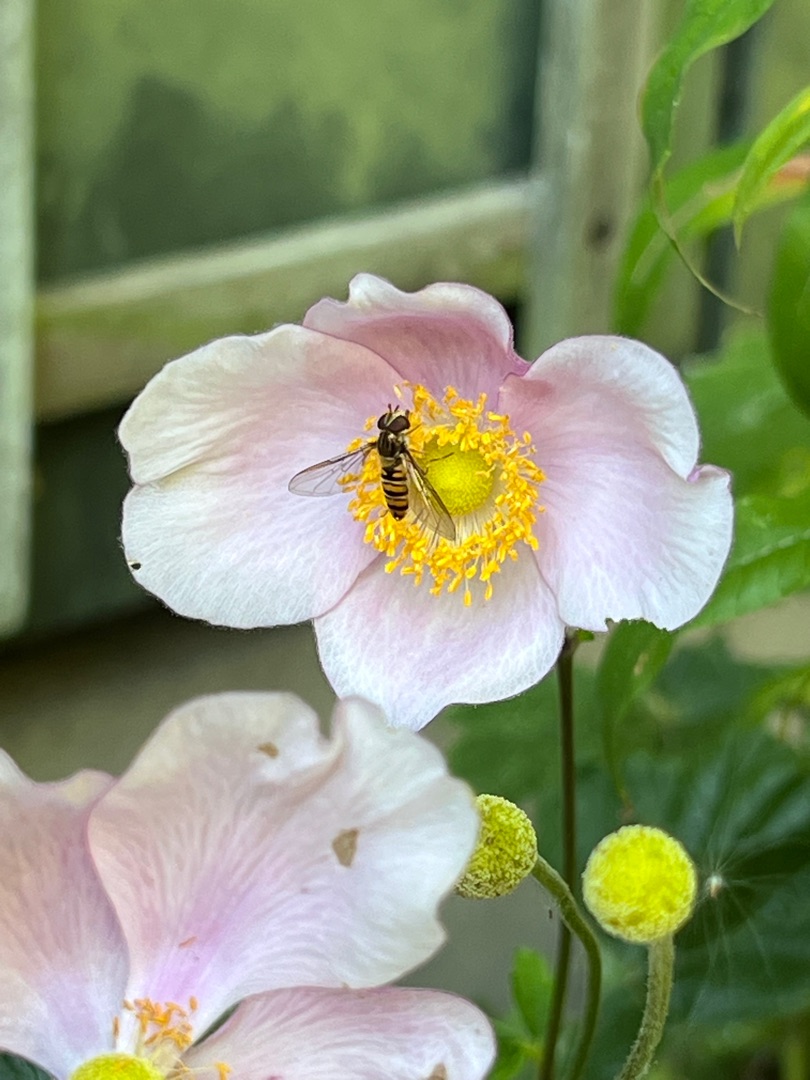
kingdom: Animalia
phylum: Arthropoda
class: Insecta
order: Diptera
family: Syrphidae
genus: Episyrphus
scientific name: Episyrphus balteatus
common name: Dobbeltbåndet svirreflue
